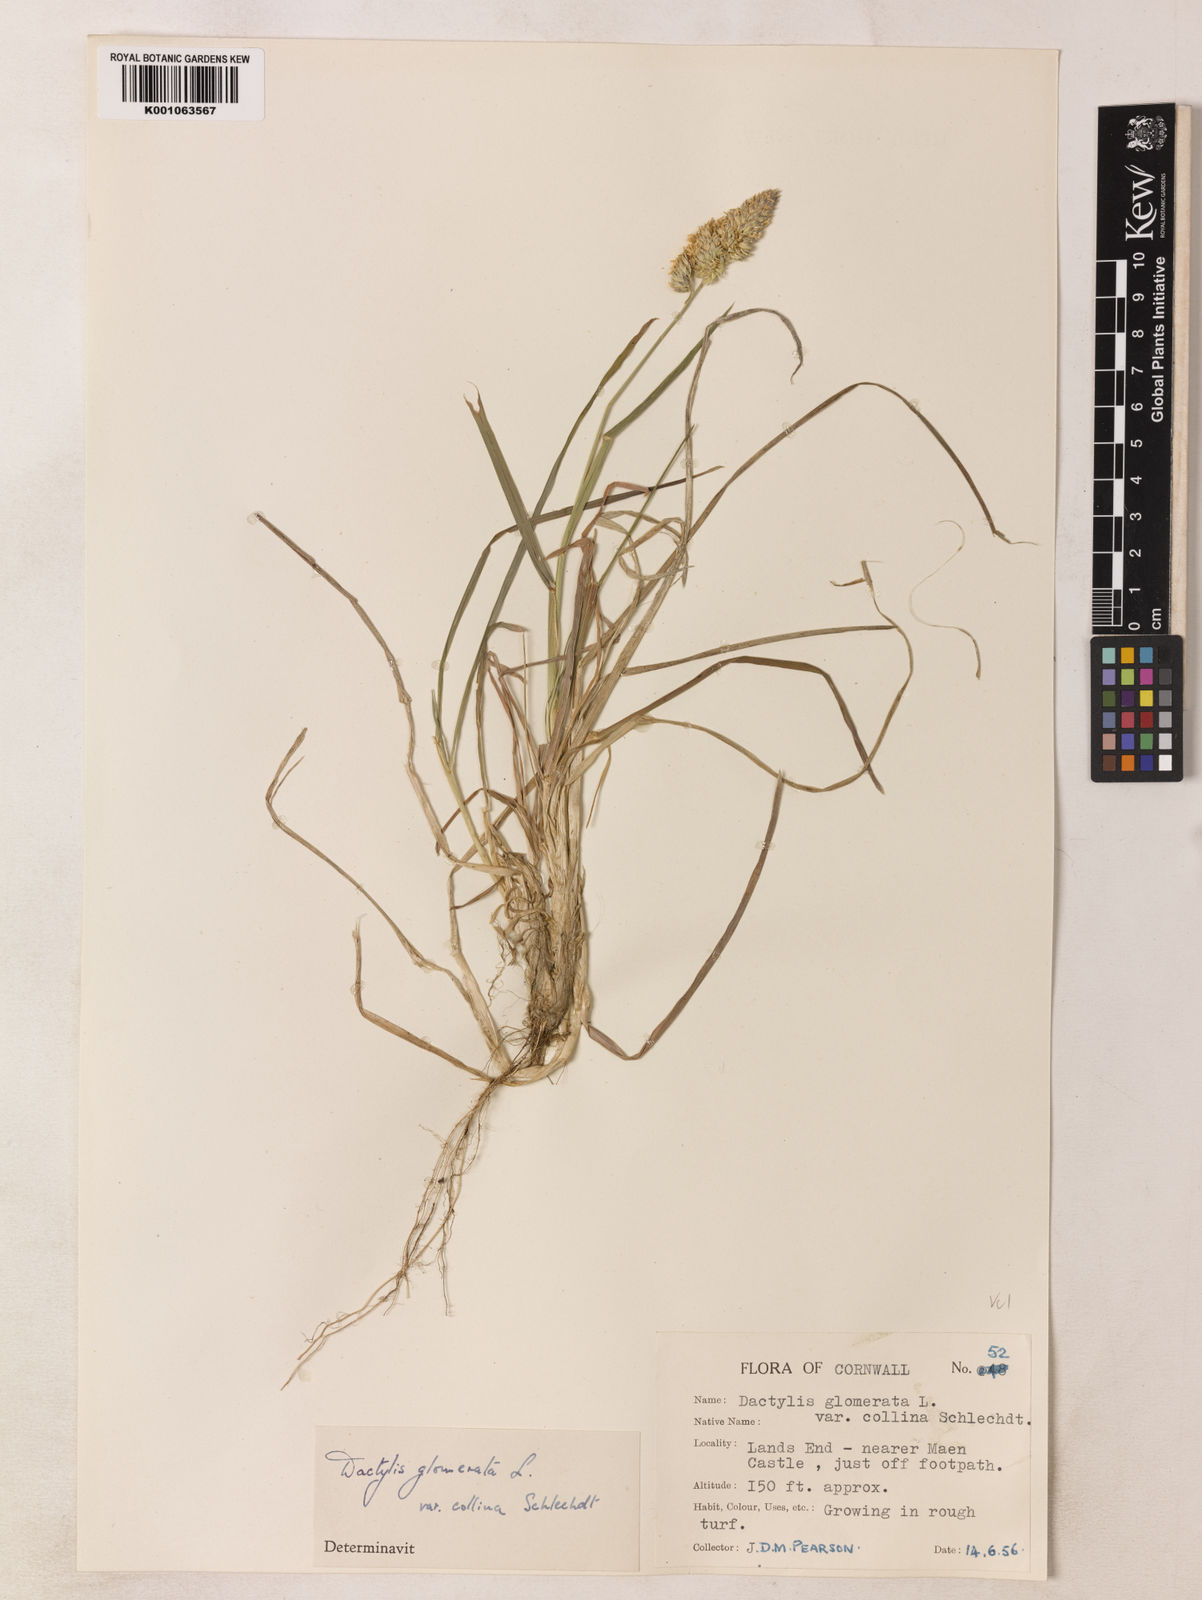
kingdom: Plantae
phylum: Tracheophyta
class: Liliopsida
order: Poales
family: Poaceae
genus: Dactylis
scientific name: Dactylis glomerata
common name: Orchardgrass
